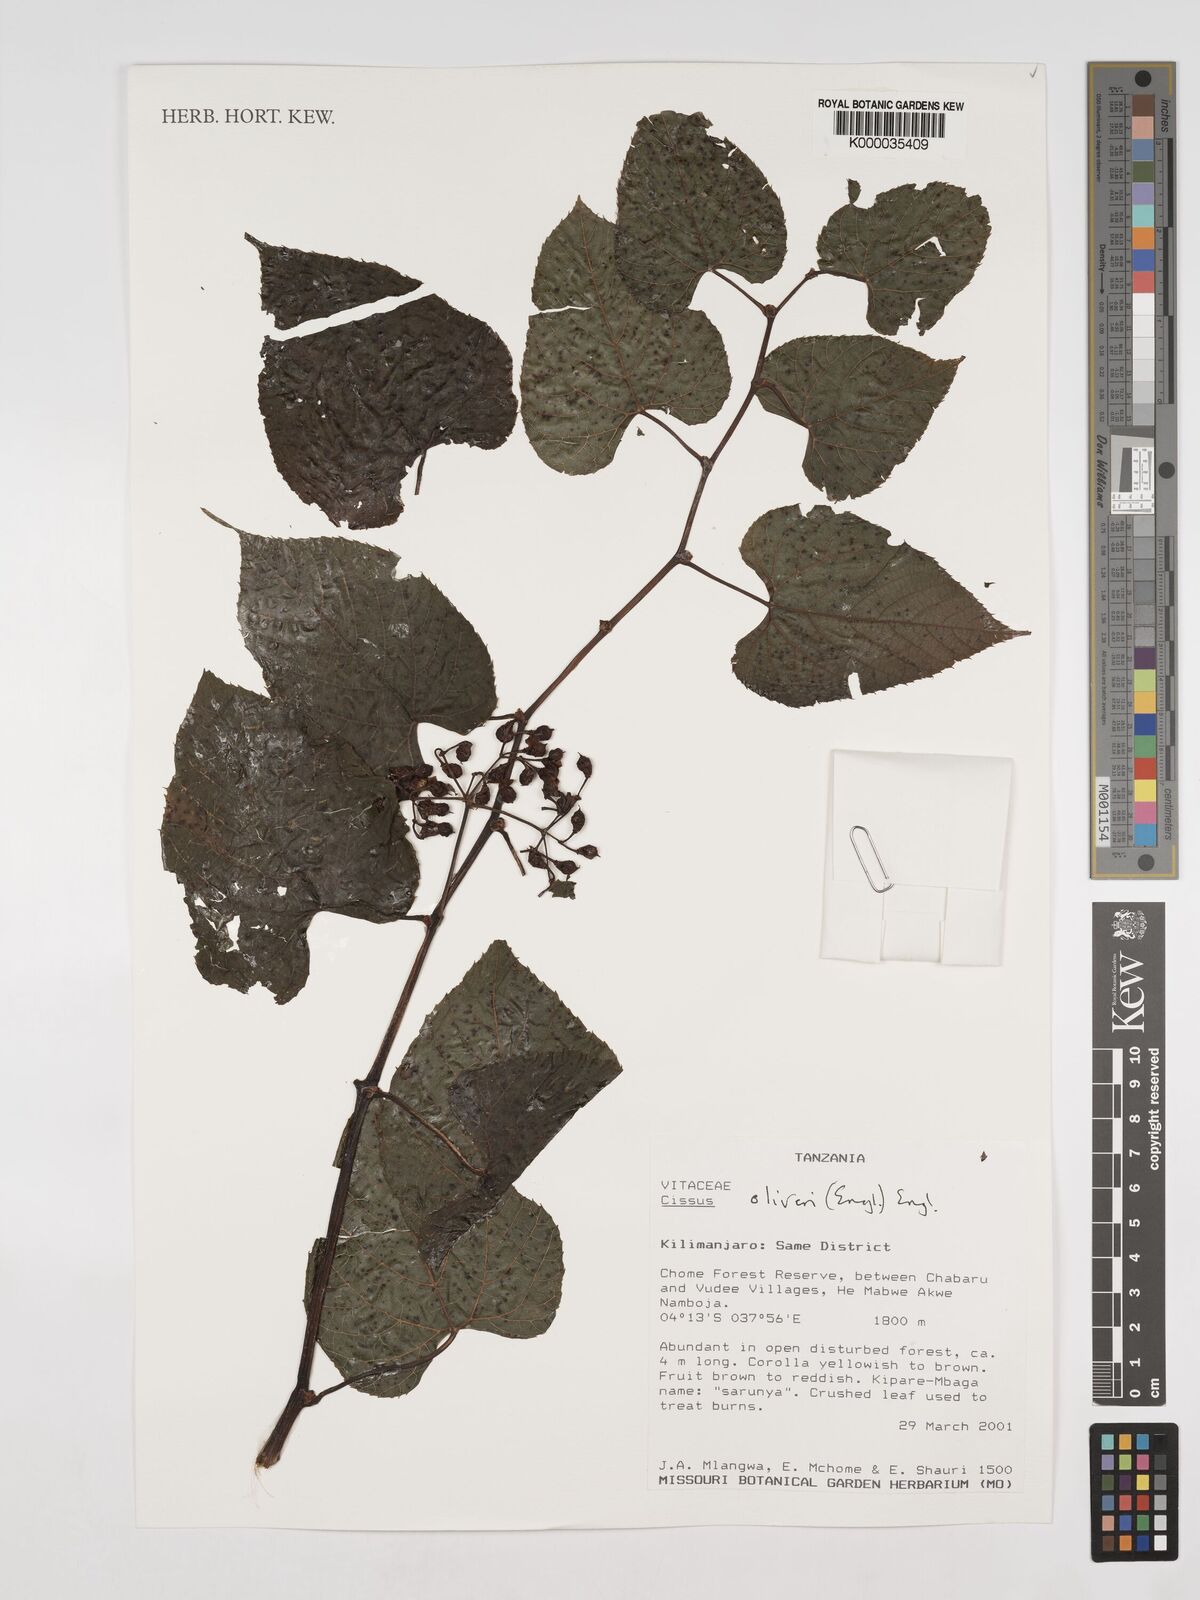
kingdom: Plantae
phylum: Tracheophyta
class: Magnoliopsida
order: Vitales
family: Vitaceae
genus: Cissus
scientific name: Cissus oliveri
